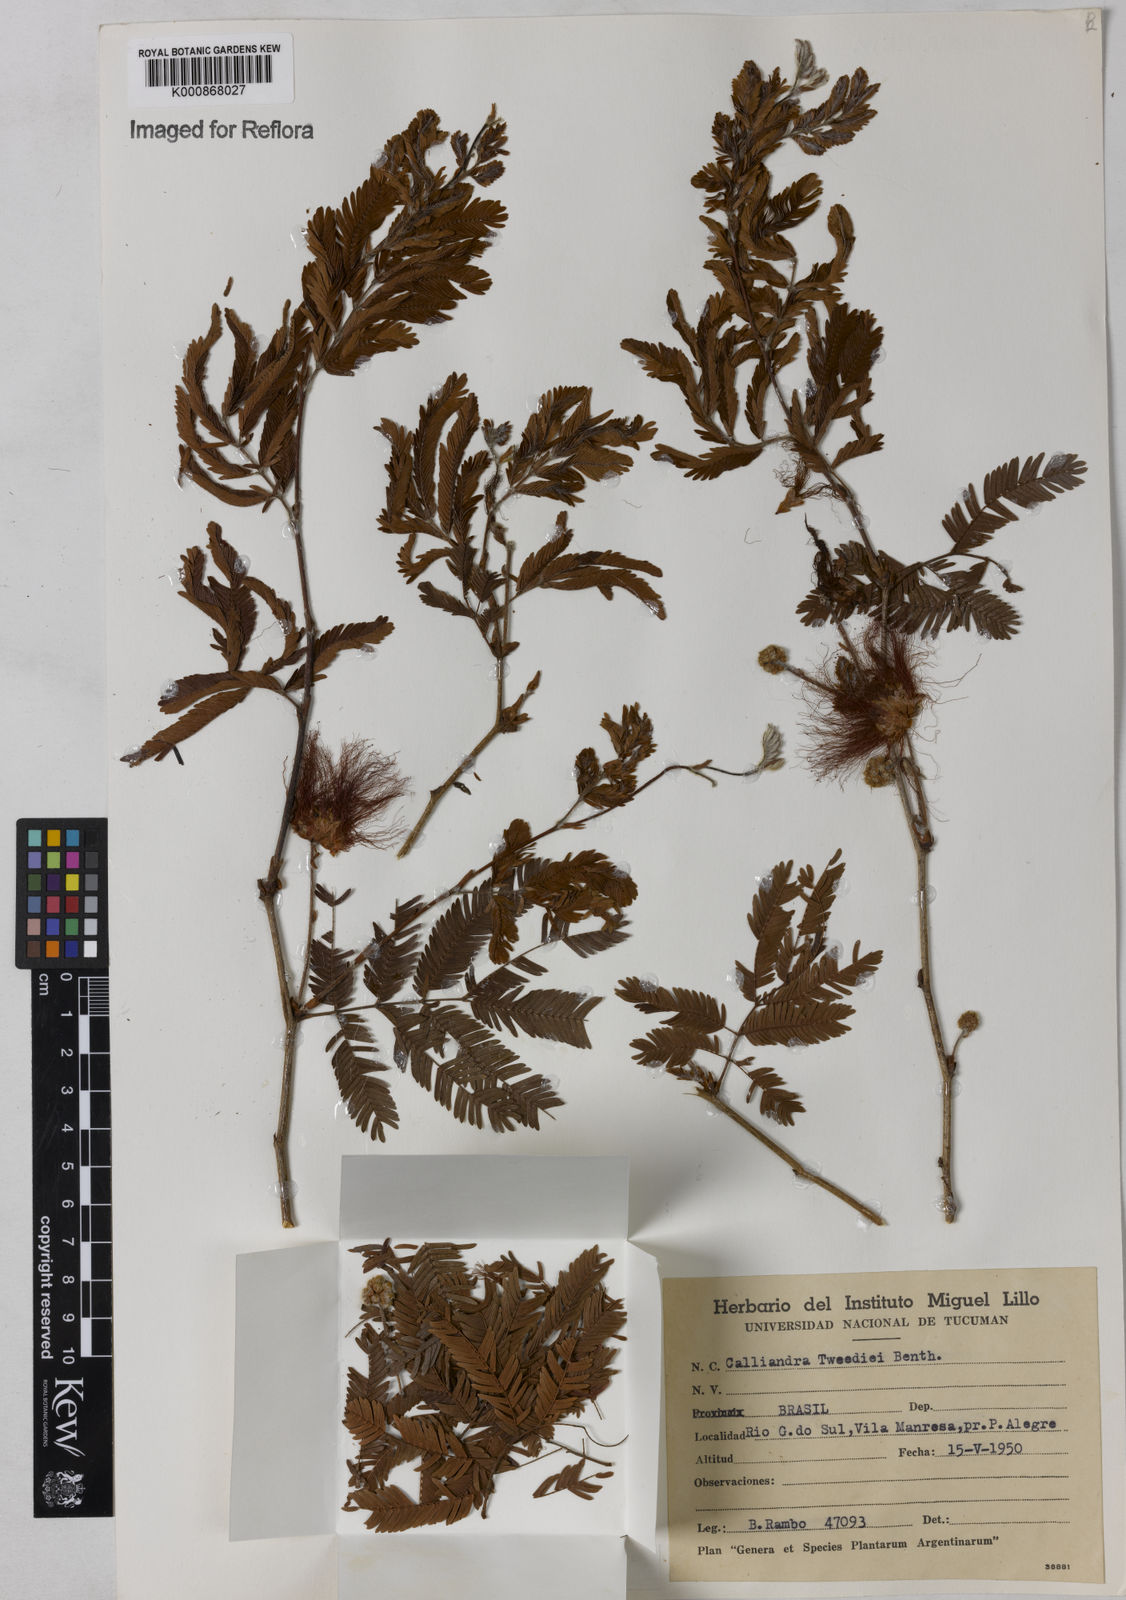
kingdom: Plantae
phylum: Tracheophyta
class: Magnoliopsida
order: Fabales
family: Fabaceae
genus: Calliandra
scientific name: Calliandra tweediei
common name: Mexican flamebush
